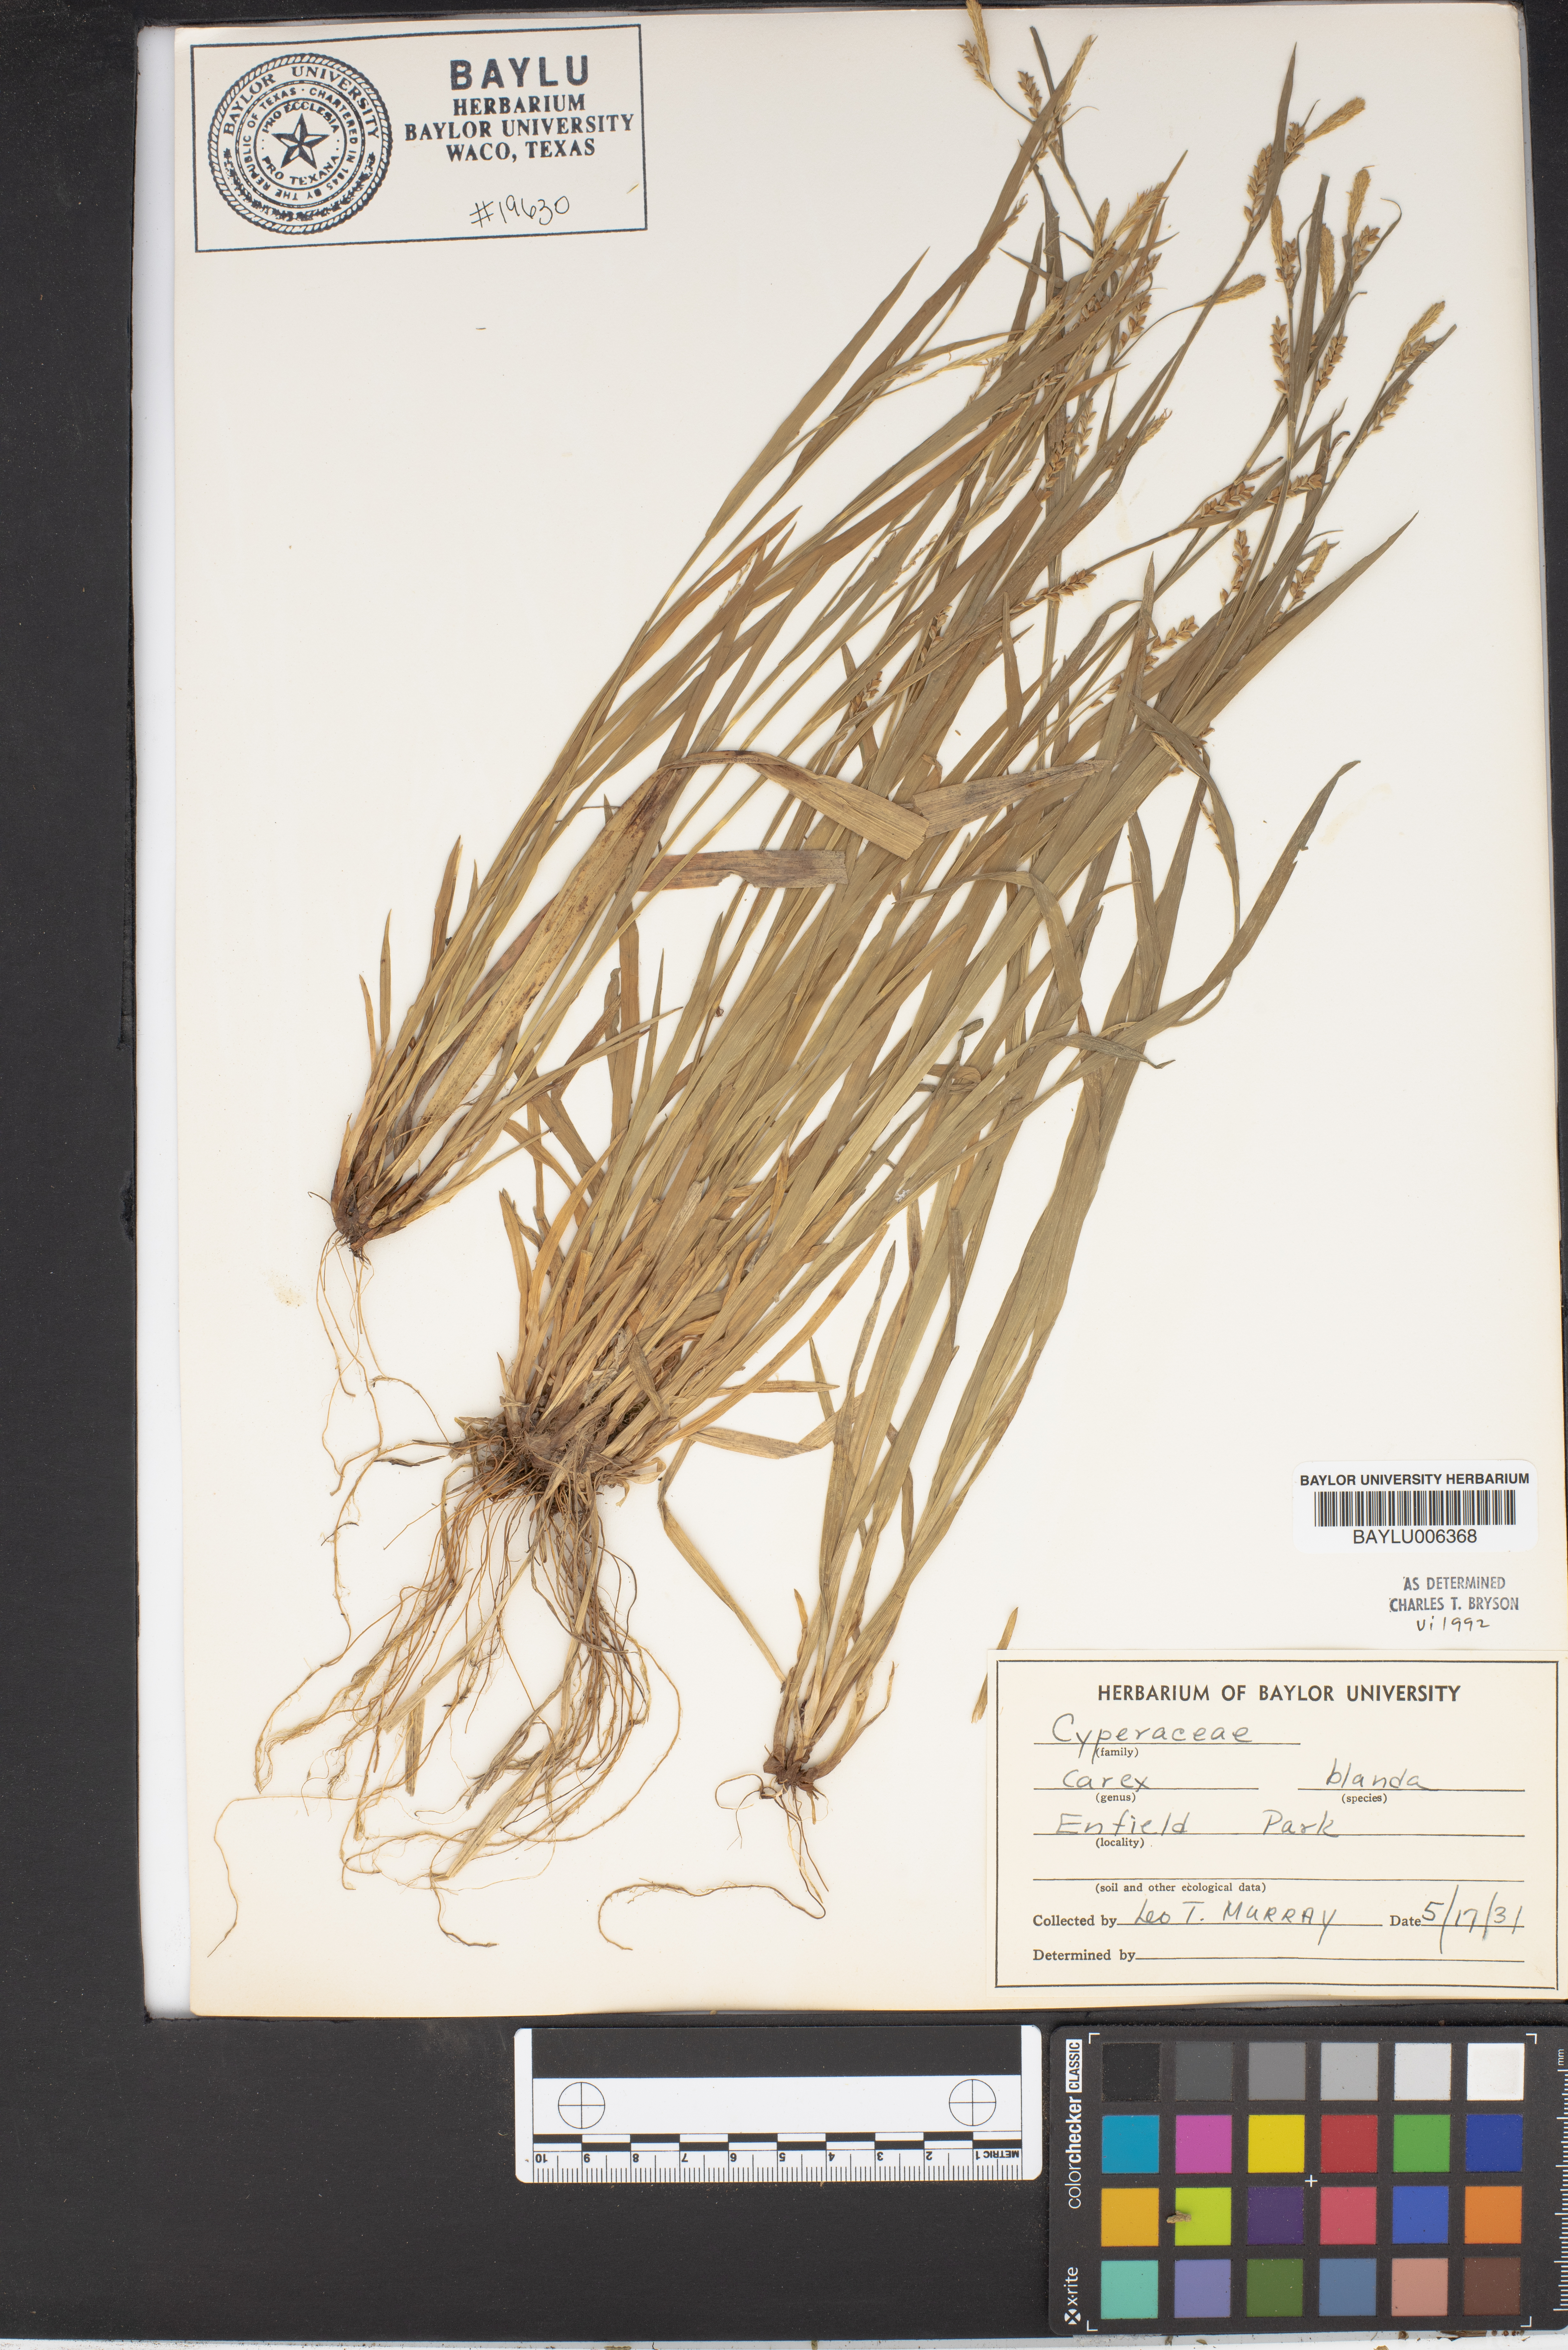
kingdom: Plantae
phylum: Tracheophyta
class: Liliopsida
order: Poales
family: Cyperaceae
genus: Carex
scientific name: Carex blanda
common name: Bland sedge
